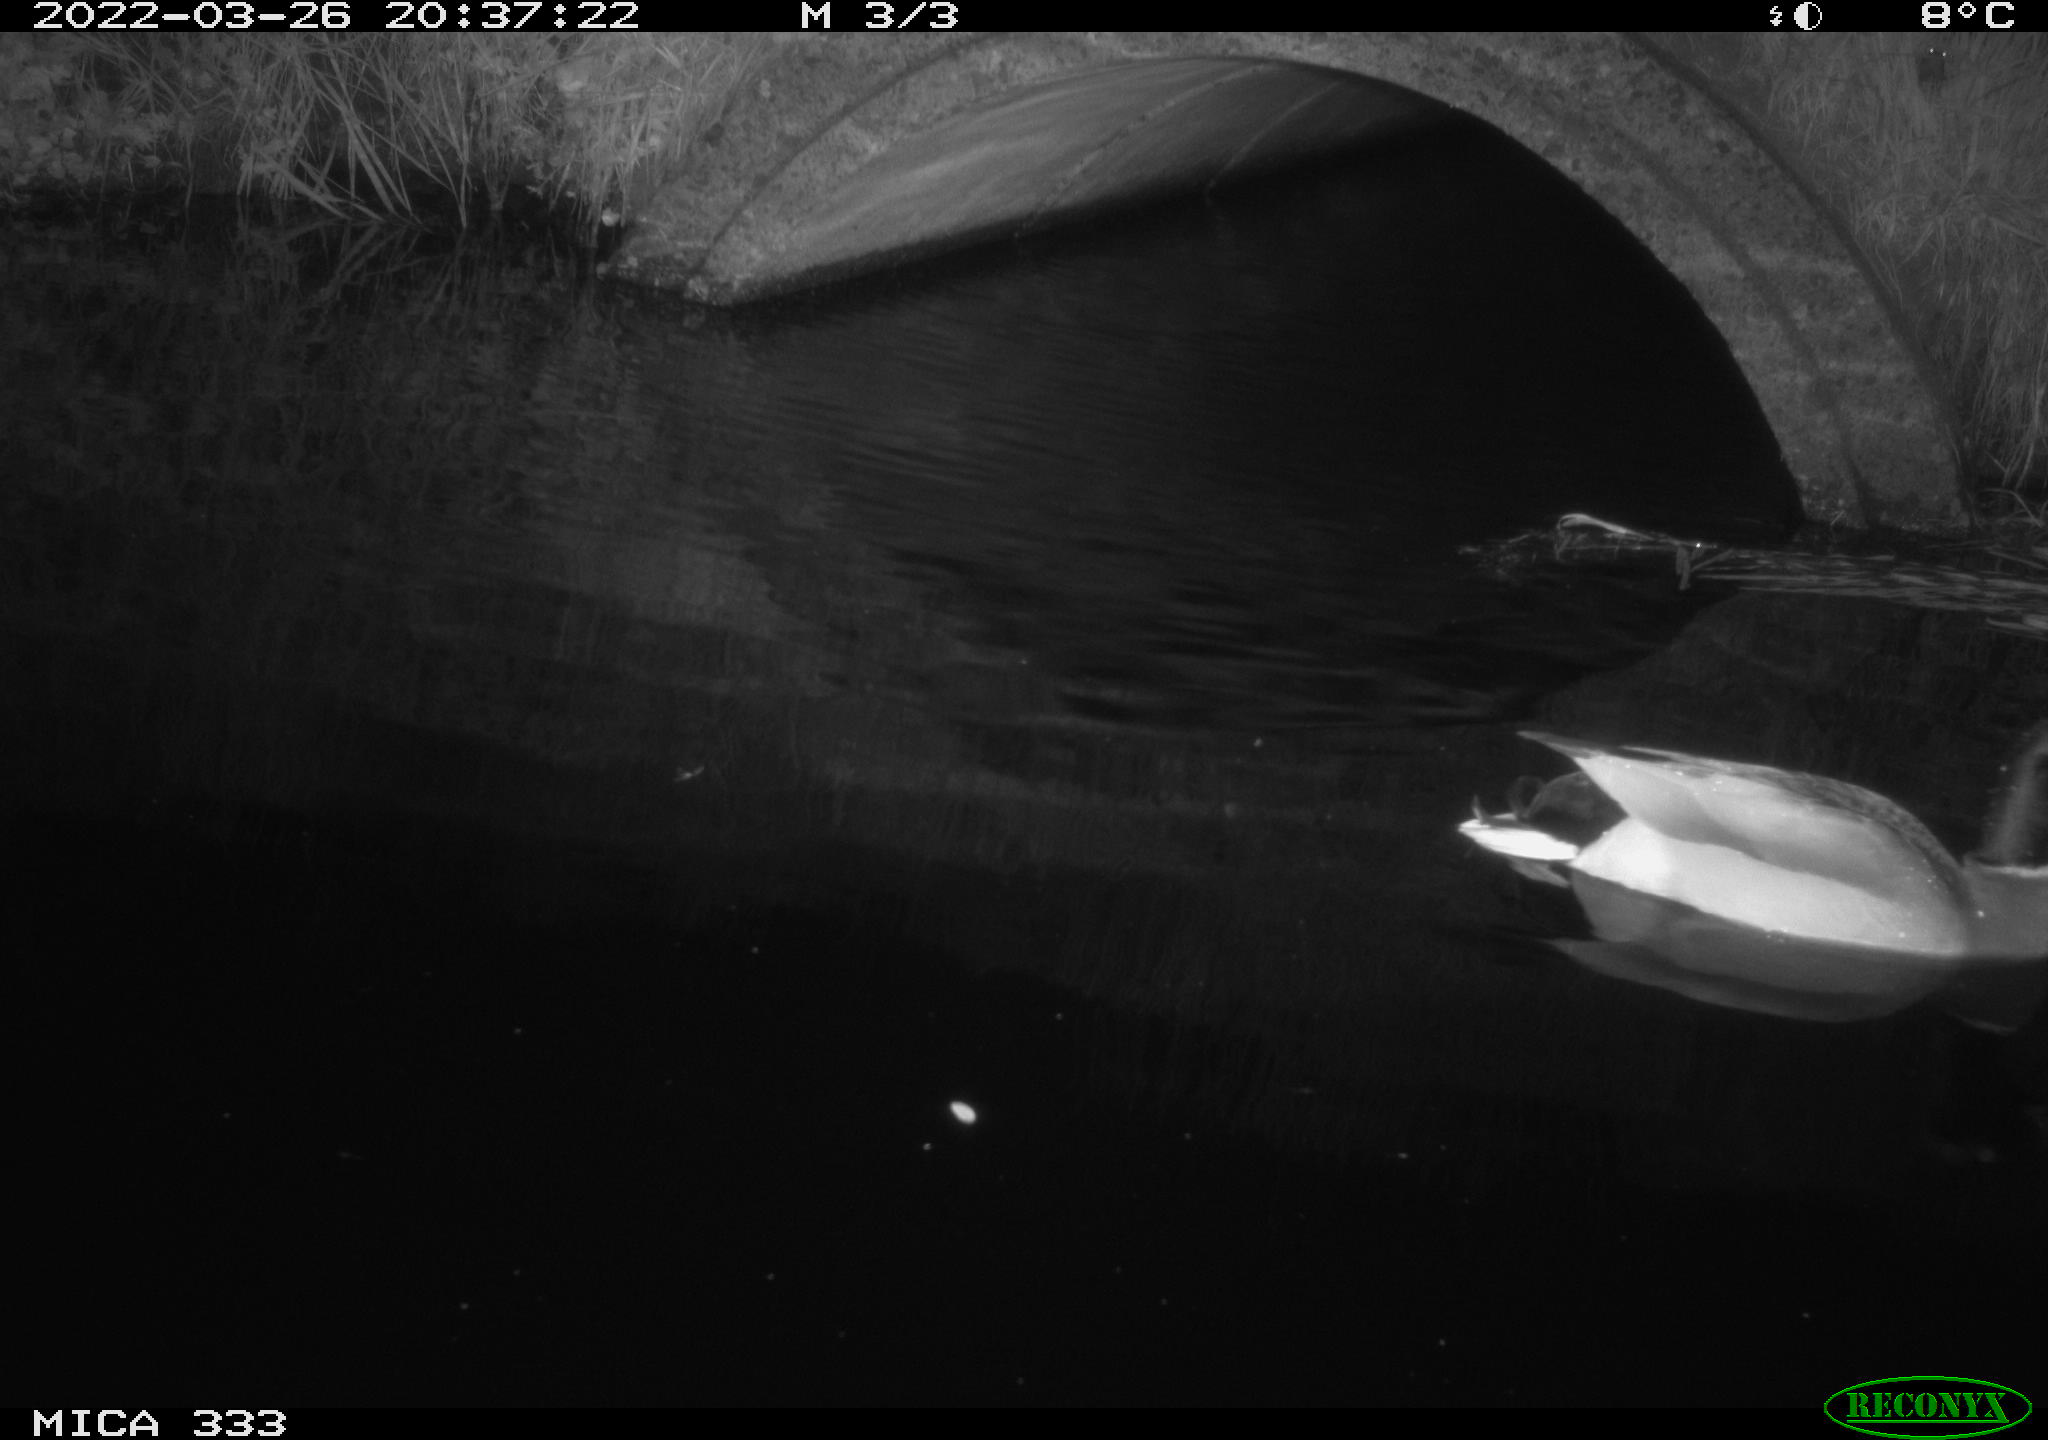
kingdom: Animalia
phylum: Chordata
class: Aves
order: Anseriformes
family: Anatidae
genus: Anas
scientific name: Anas platyrhynchos
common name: Mallard
